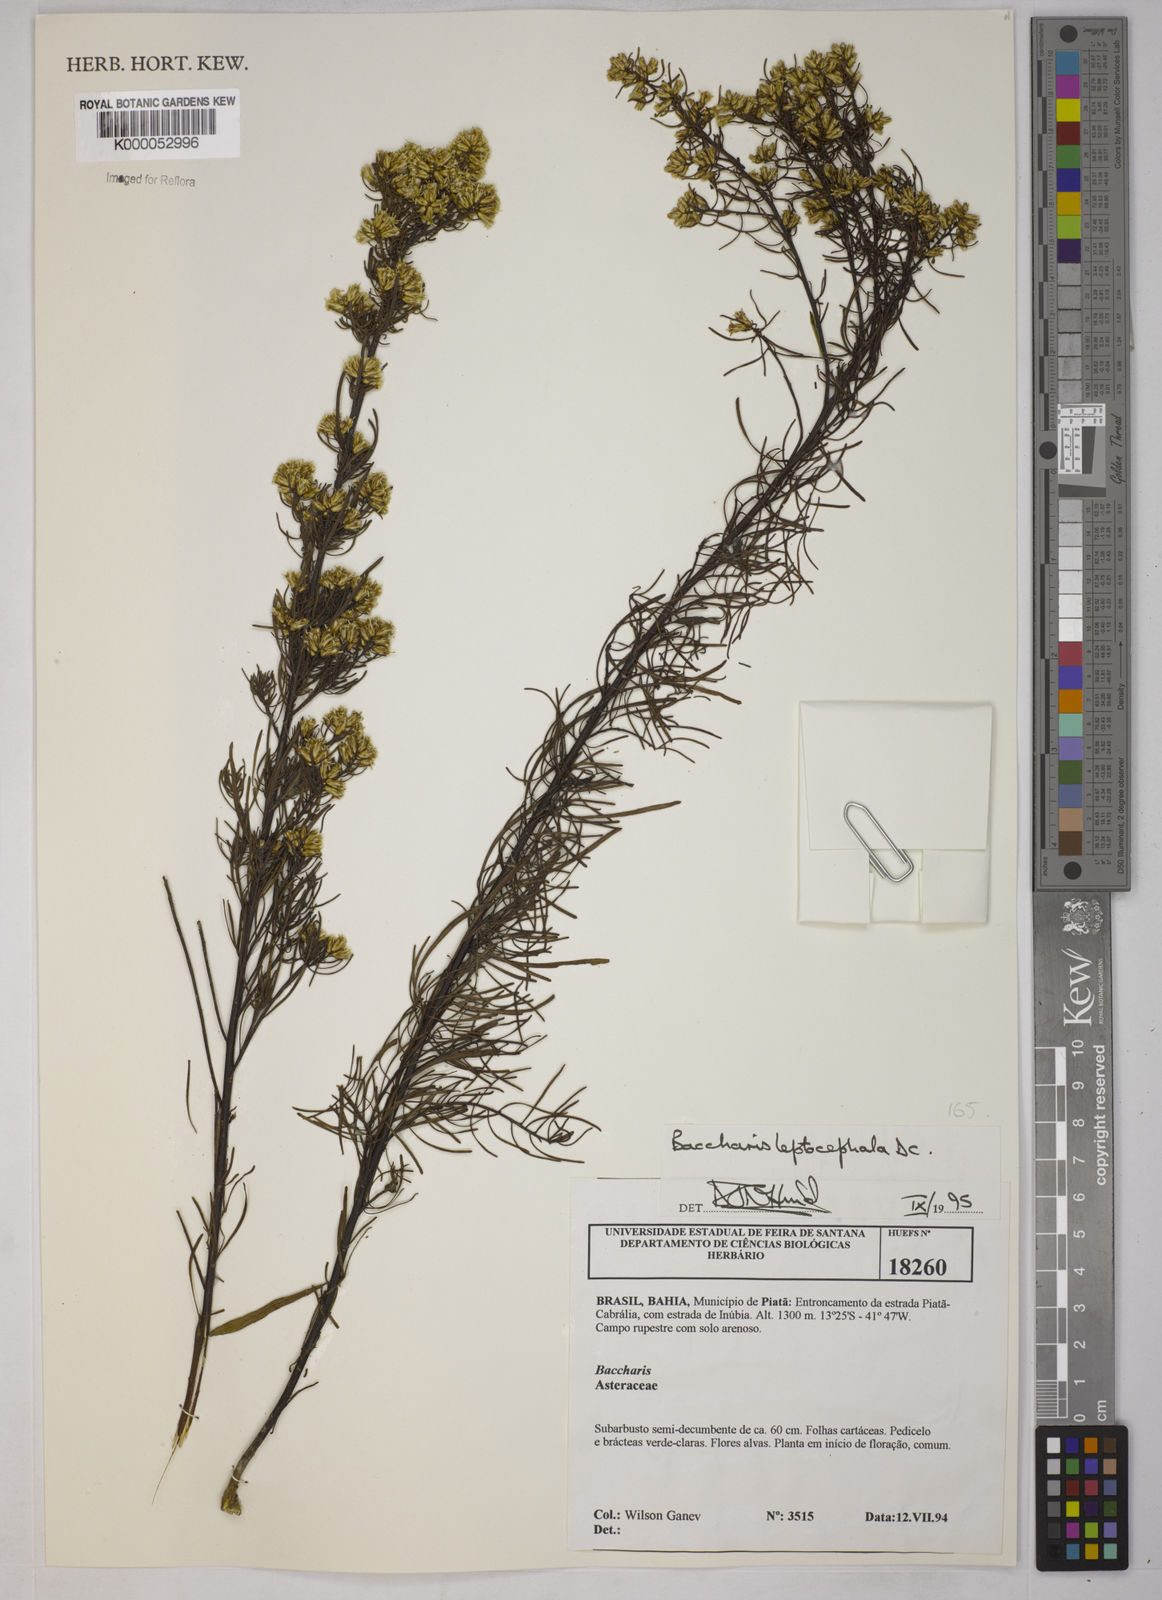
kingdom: Plantae
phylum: Tracheophyta
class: Magnoliopsida
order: Asterales
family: Asteraceae
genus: Baccharis
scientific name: Baccharis leptocephala
